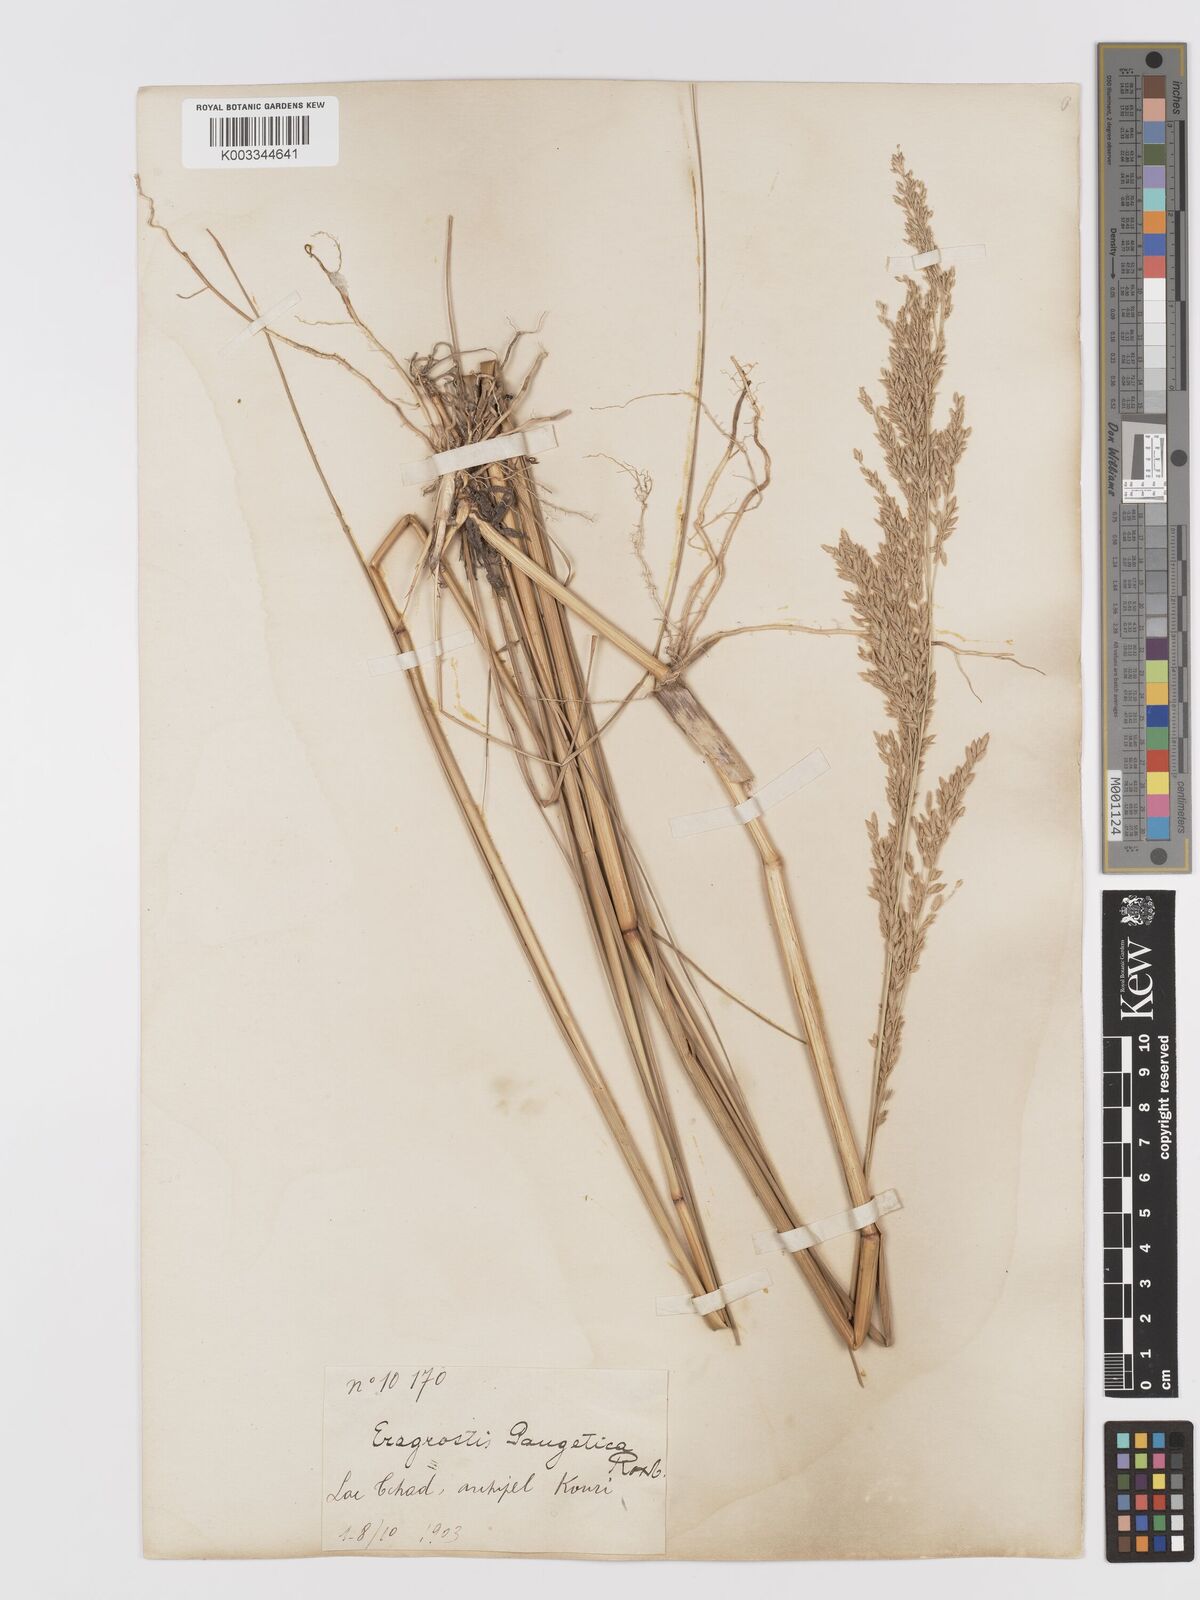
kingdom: Plantae
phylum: Tracheophyta
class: Liliopsida
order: Poales
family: Poaceae
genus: Eragrostis
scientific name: Eragrostis
